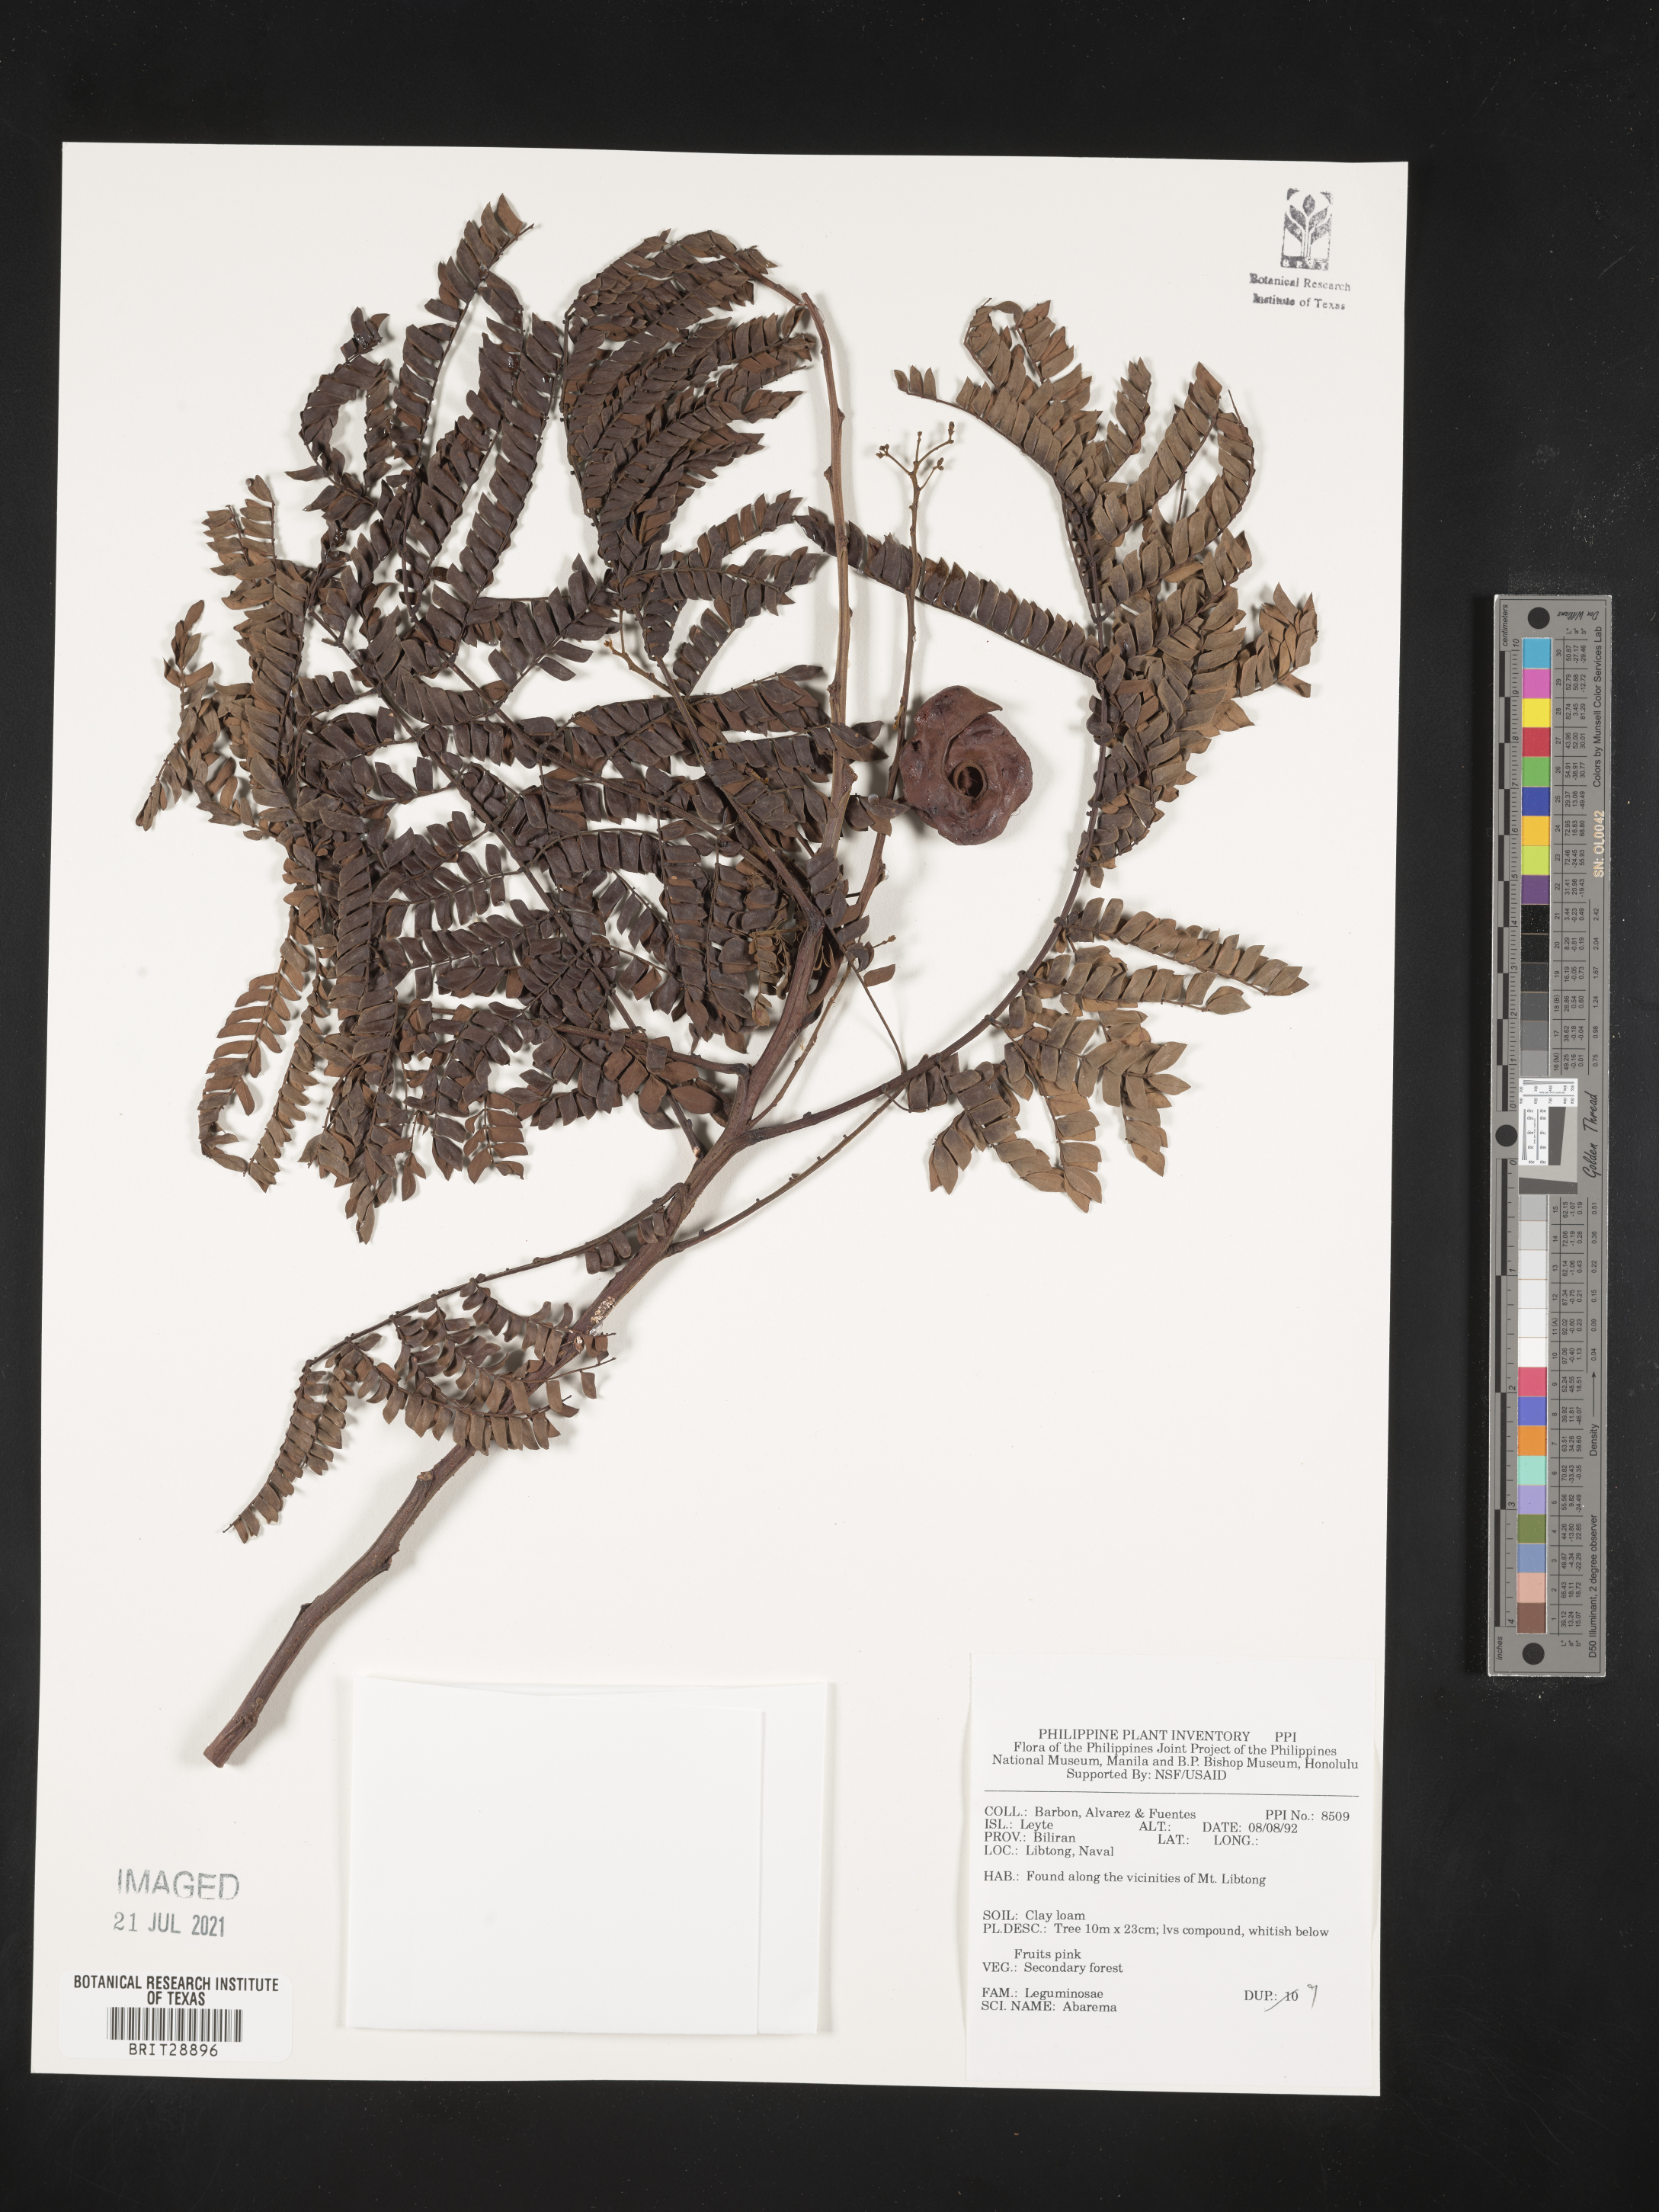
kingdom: Plantae
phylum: Tracheophyta
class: Magnoliopsida
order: Fabales
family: Fabaceae
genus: Abarema
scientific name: Abarema
